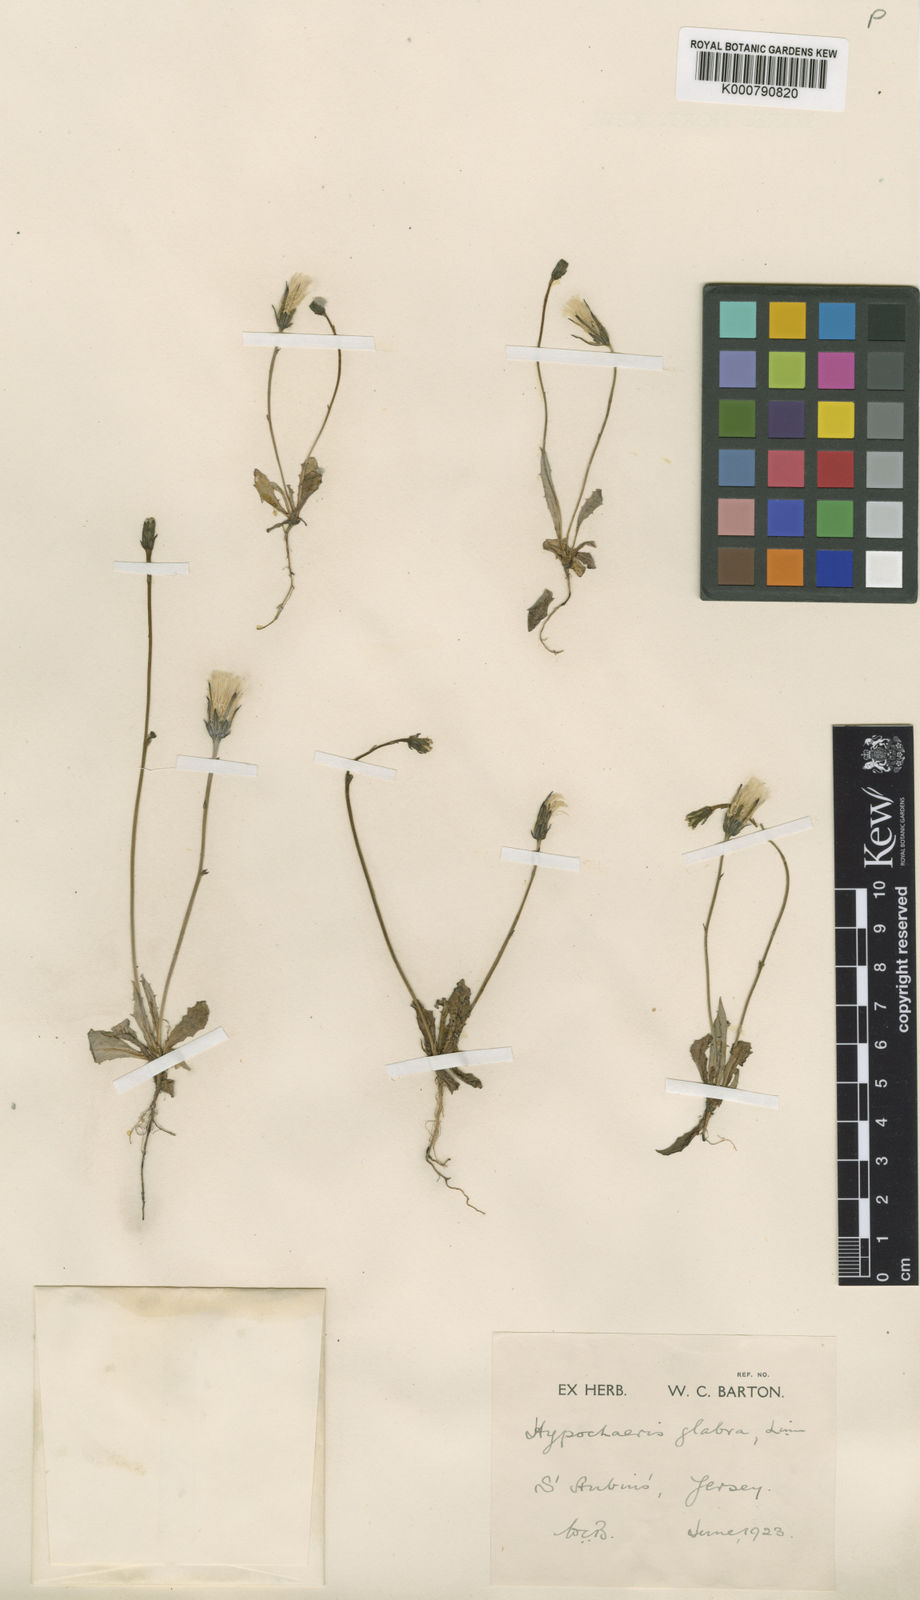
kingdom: Plantae
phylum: Tracheophyta
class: Magnoliopsida
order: Asterales
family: Asteraceae
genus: Hypochaeris
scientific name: Hypochaeris glabra
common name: Smooth catsear
